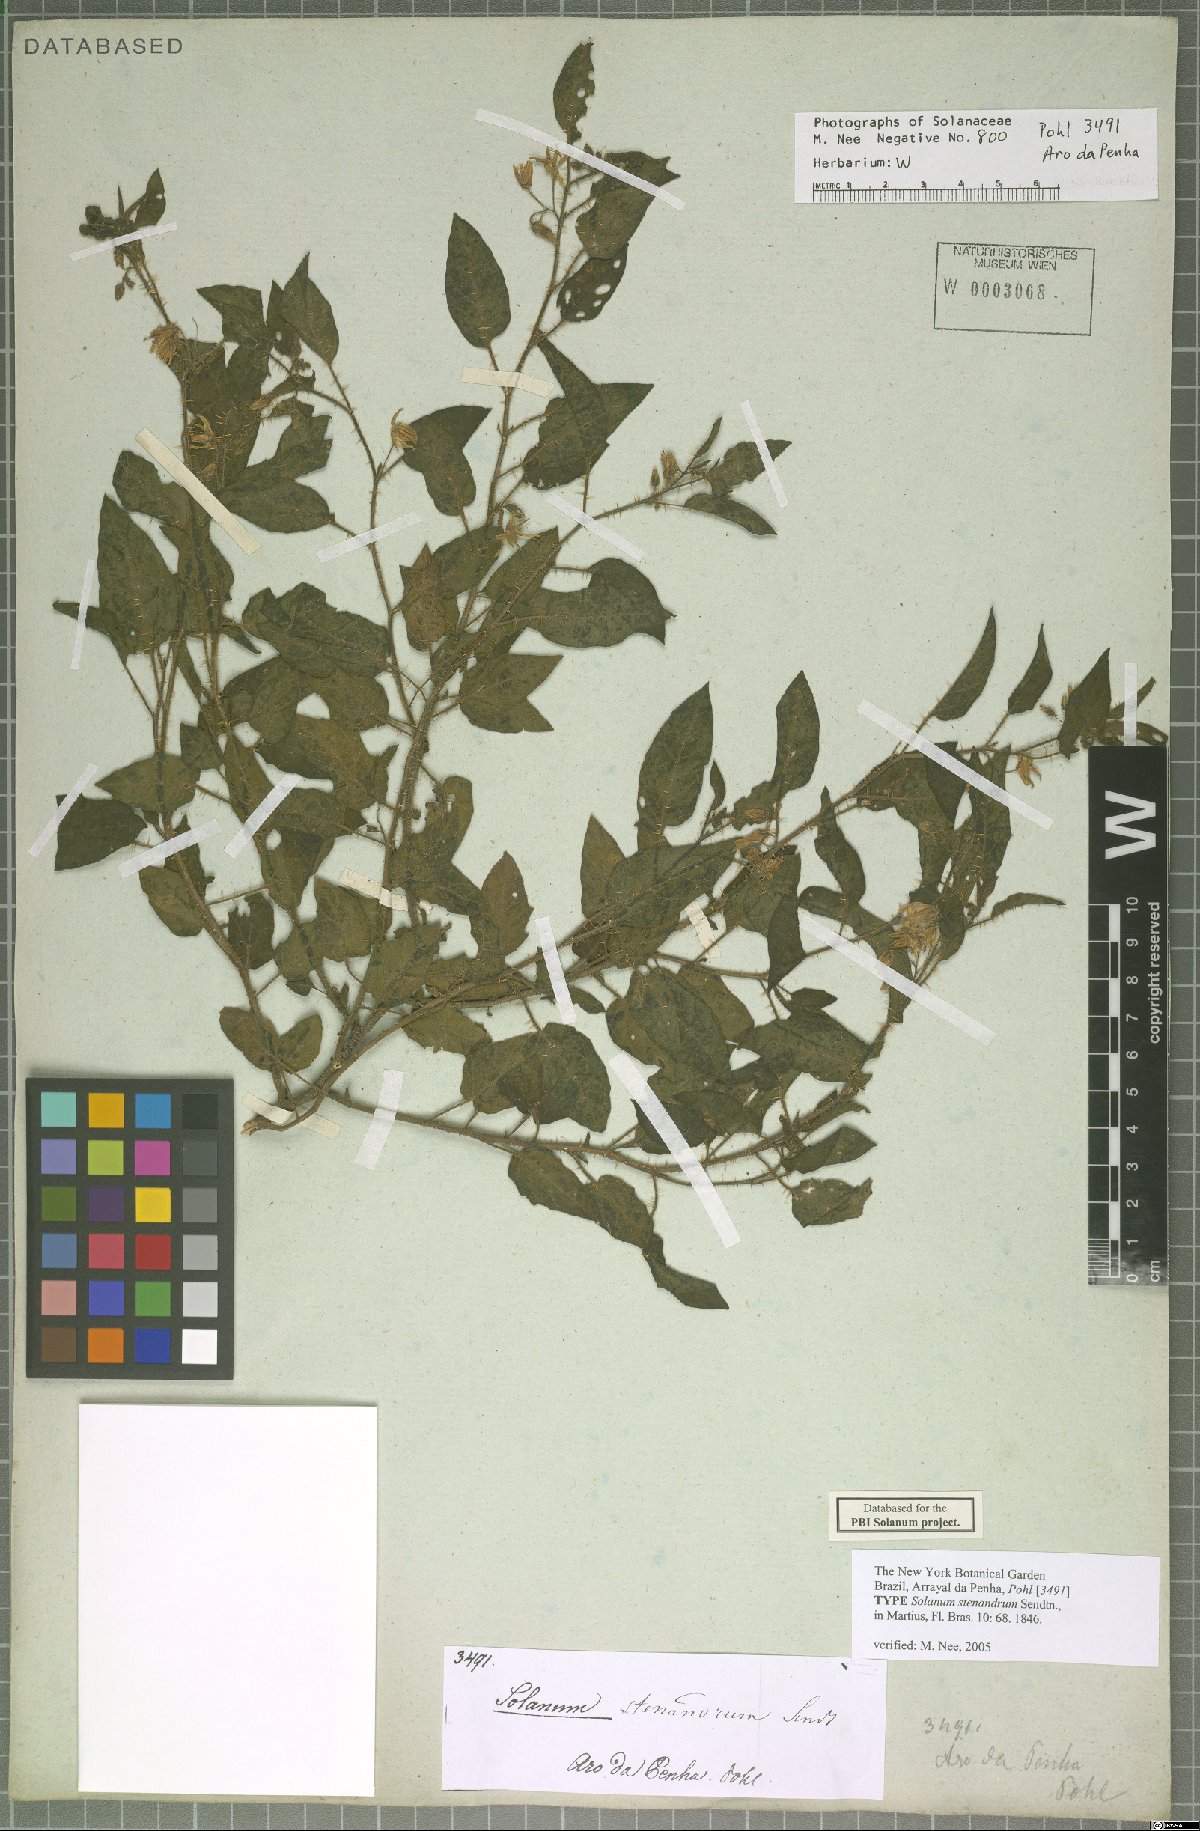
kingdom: Plantae
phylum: Tracheophyta
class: Magnoliopsida
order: Solanales
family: Solanaceae
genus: Solanum
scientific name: Solanum stenandrum
